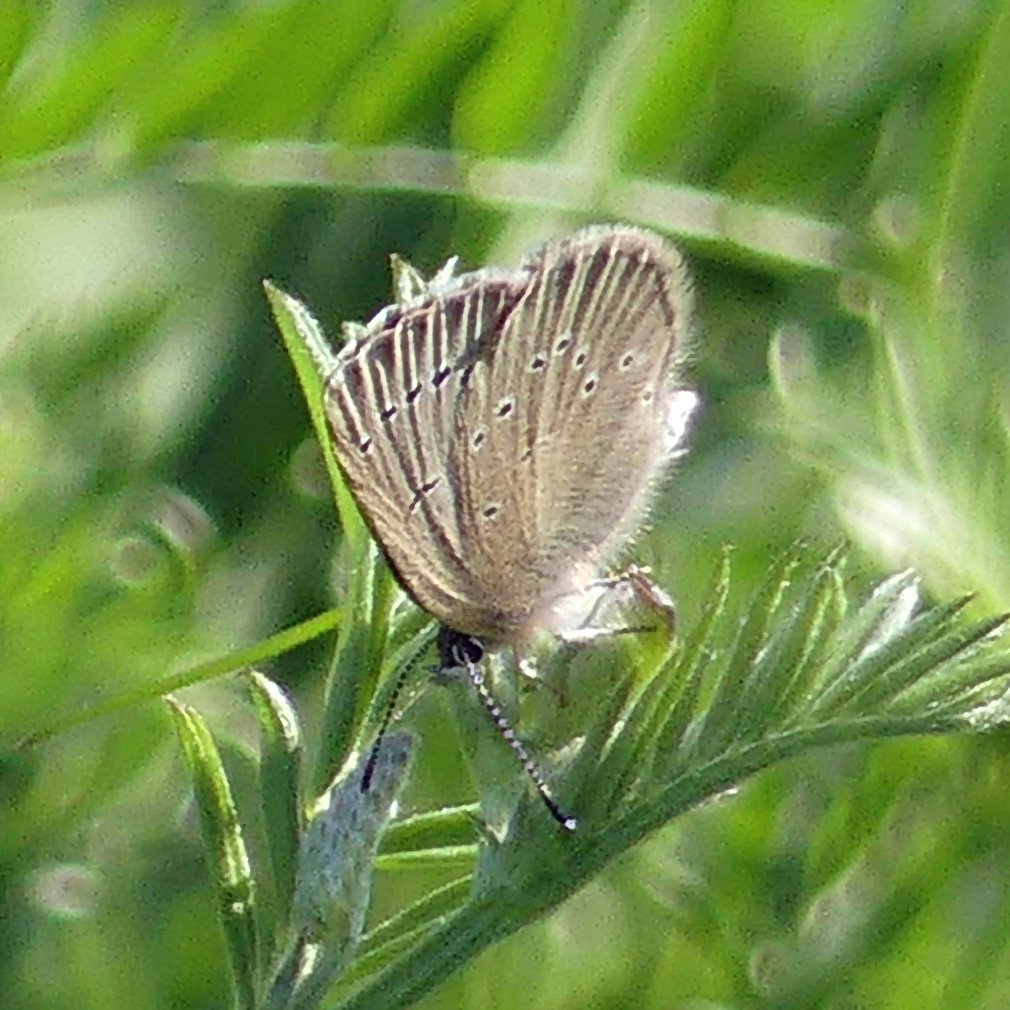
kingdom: Animalia
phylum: Arthropoda
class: Insecta
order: Lepidoptera
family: Lycaenidae
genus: Glaucopsyche
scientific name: Glaucopsyche lygdamus
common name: Silvery Blue
